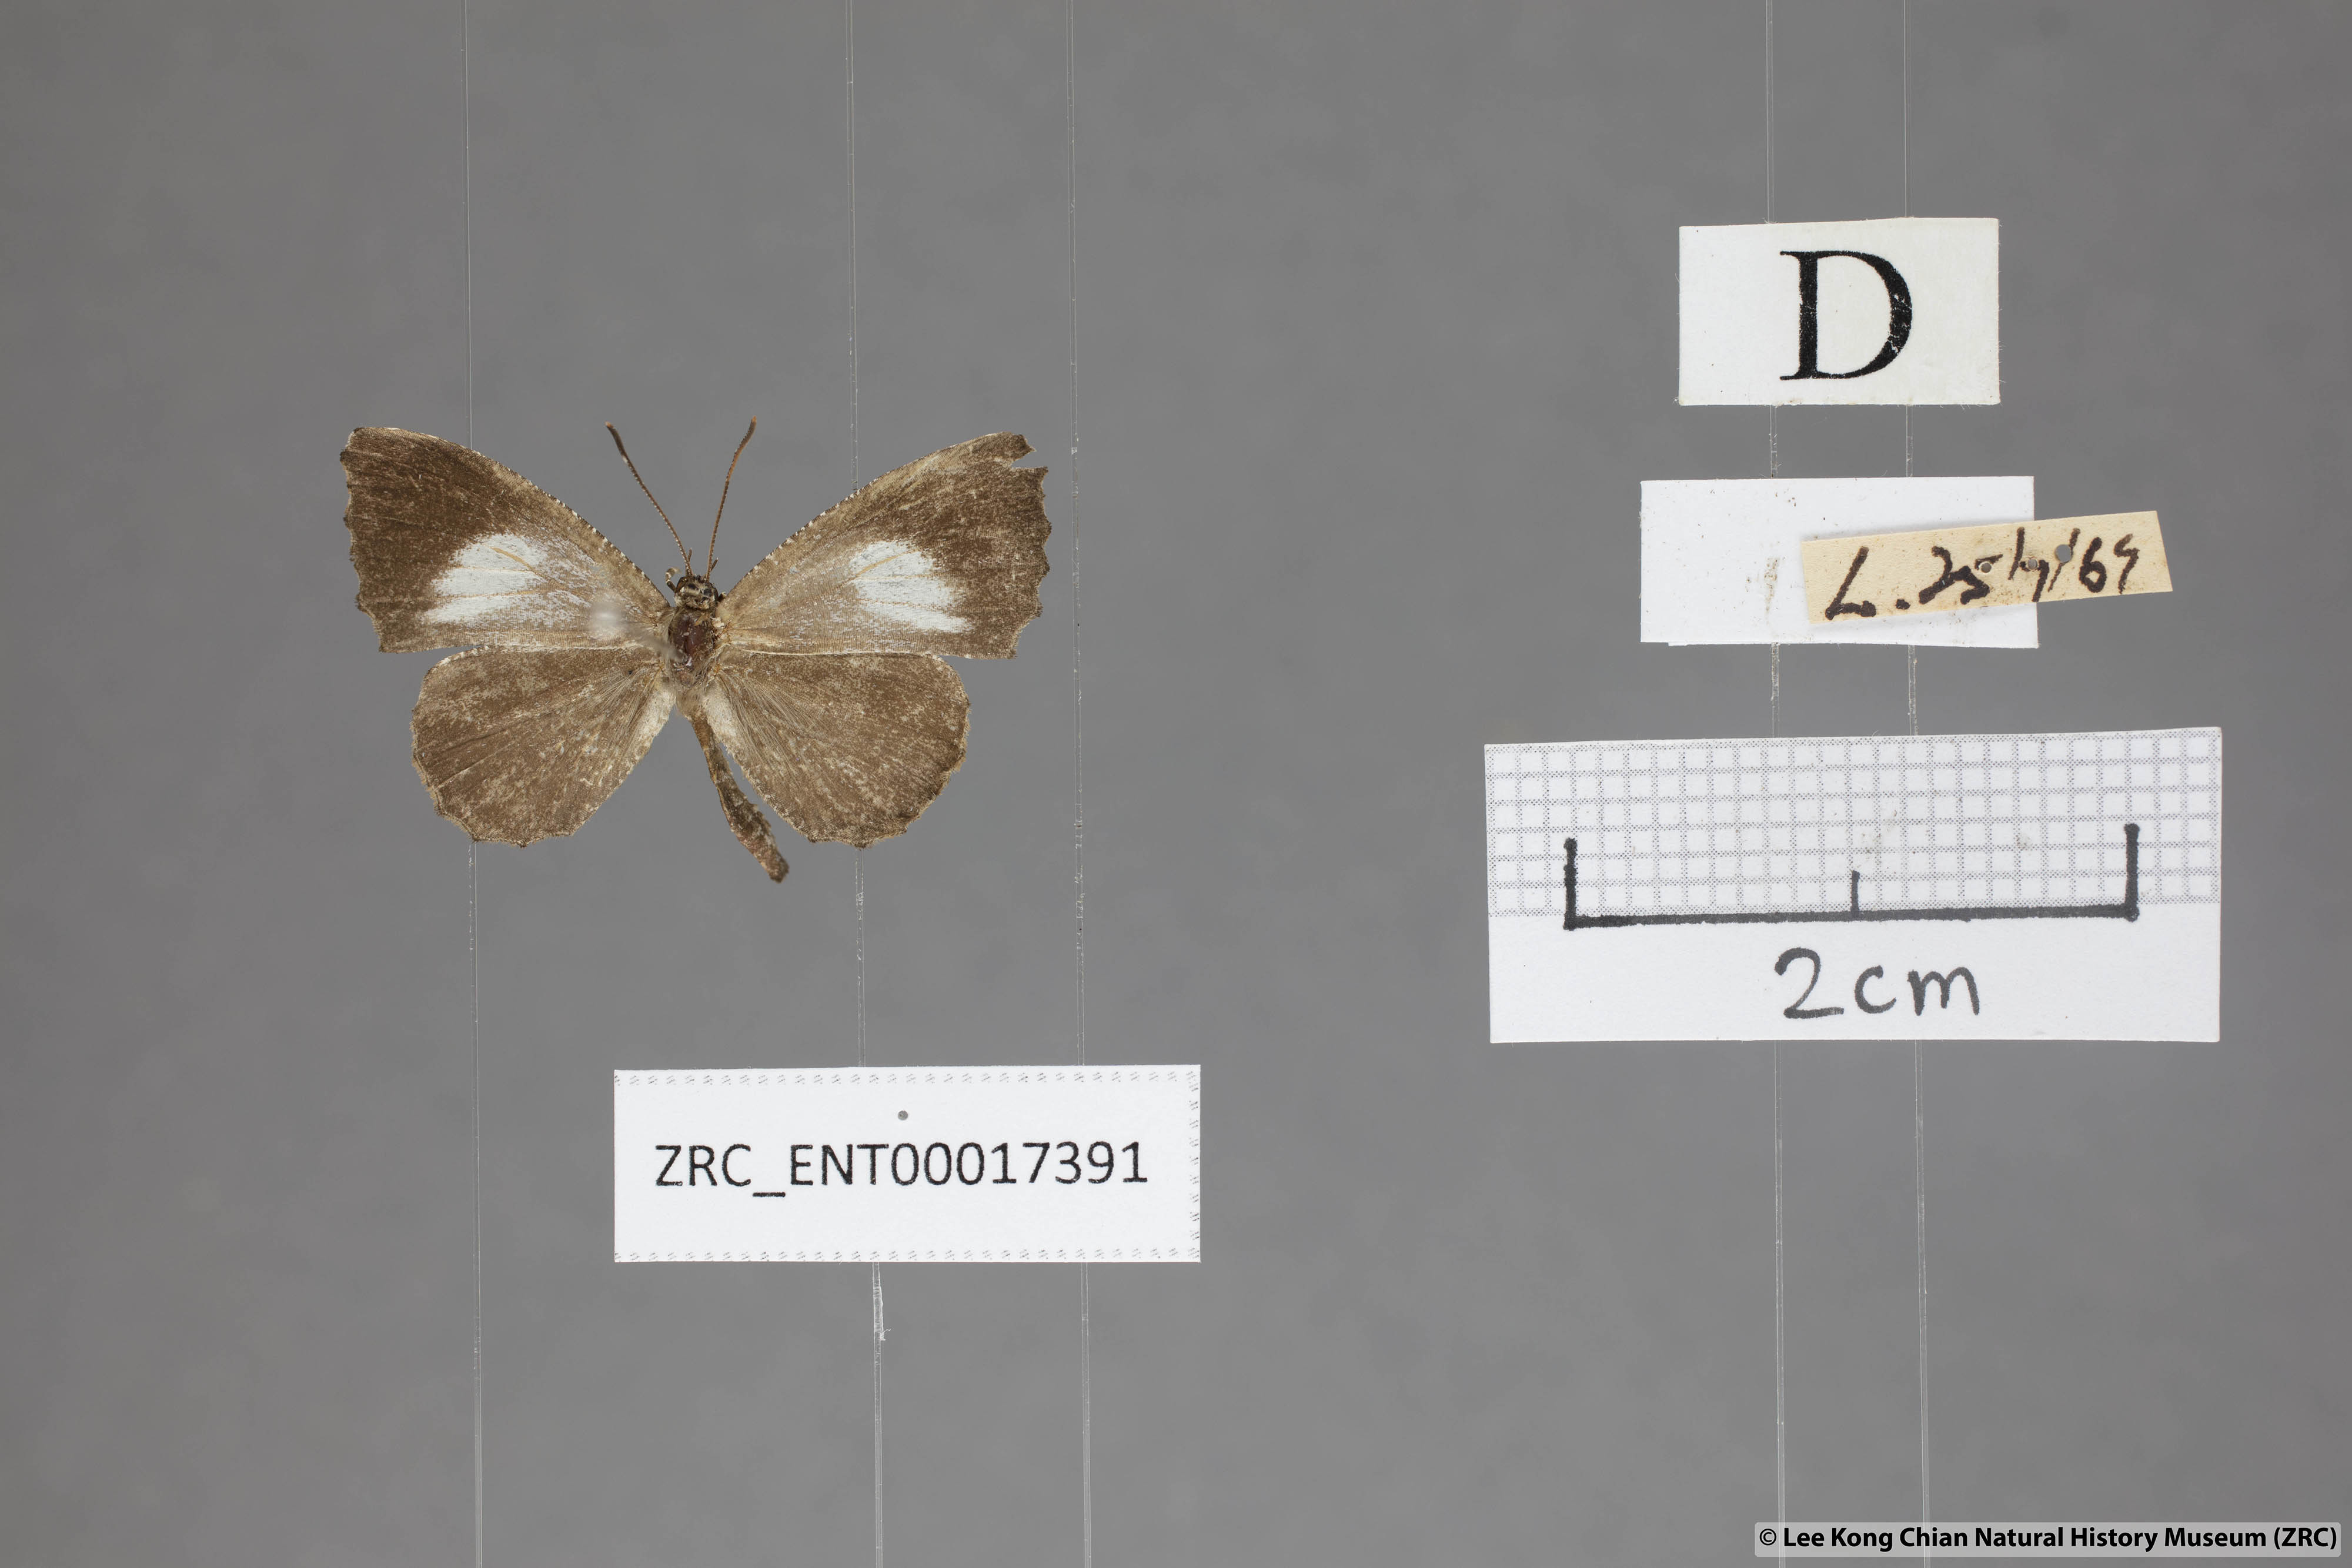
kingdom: Animalia
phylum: Arthropoda
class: Insecta
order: Lepidoptera
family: Lycaenidae
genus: Logania
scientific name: Logania marmorata
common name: Pale mottle
